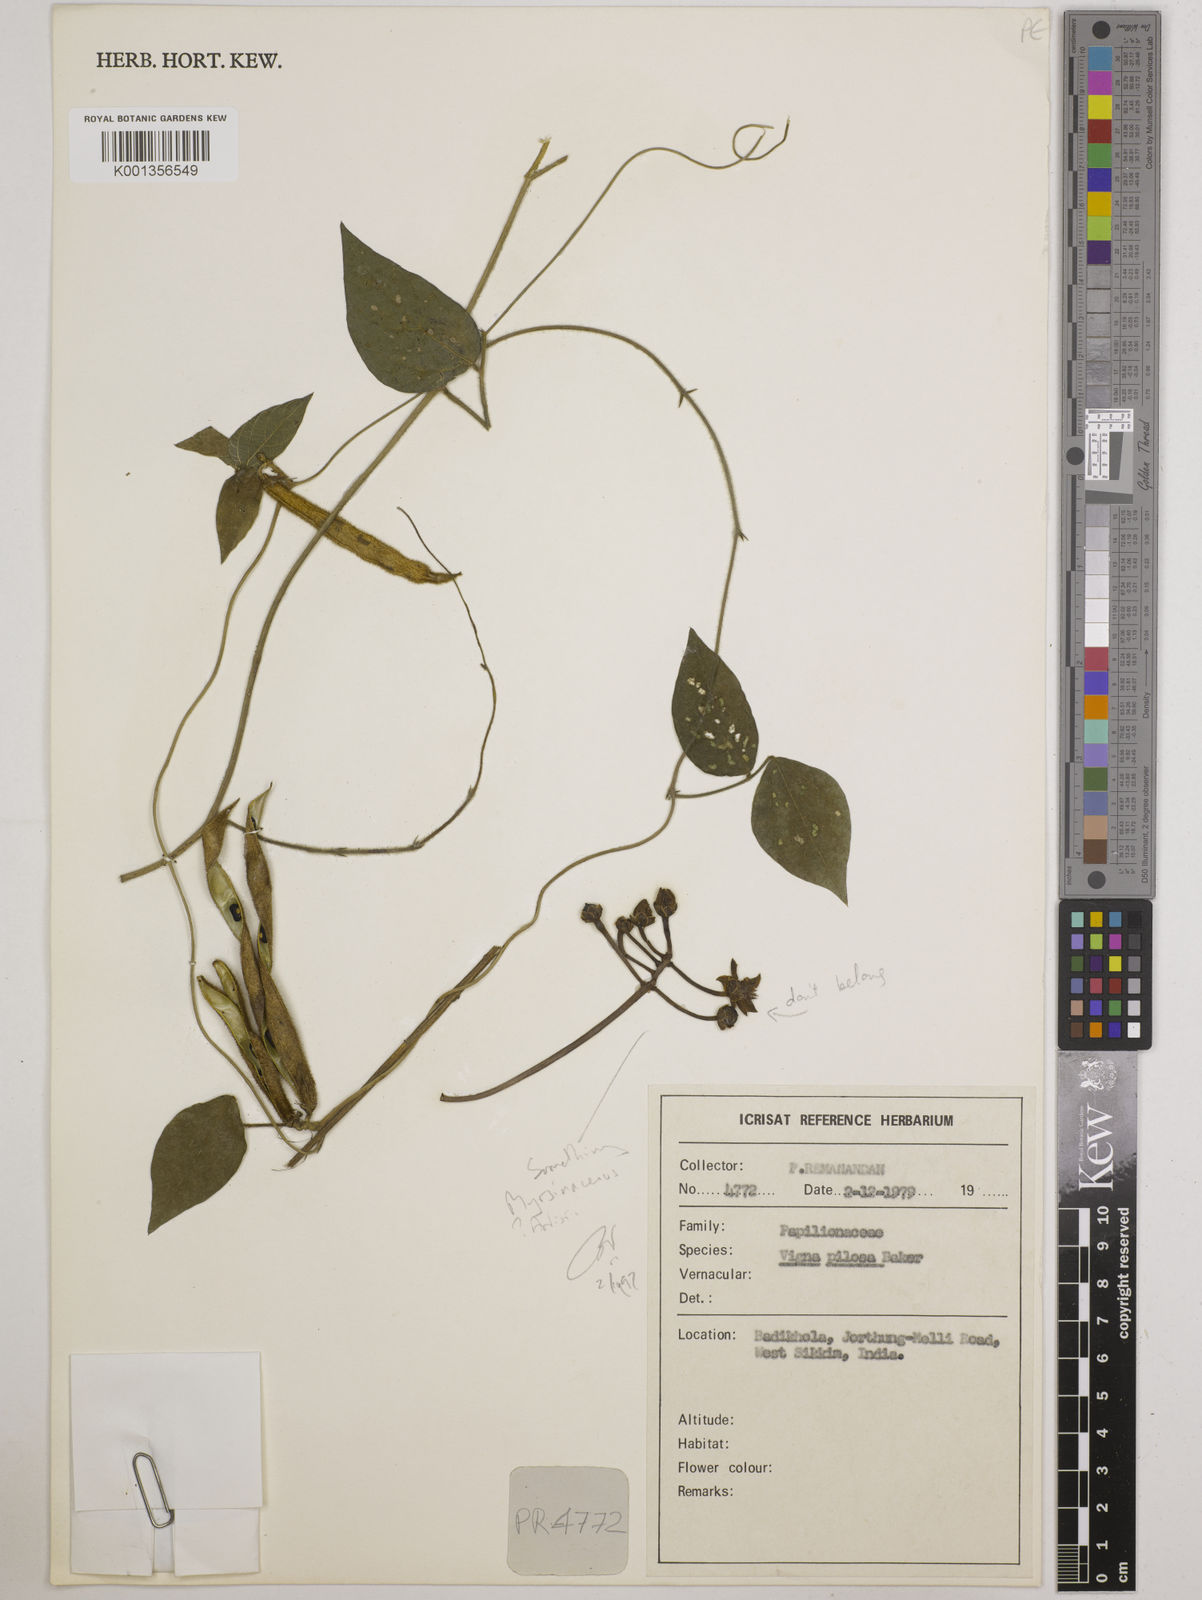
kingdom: Plantae
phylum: Tracheophyta
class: Magnoliopsida
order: Fabales
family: Fabaceae
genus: Vigna
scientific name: Vigna
